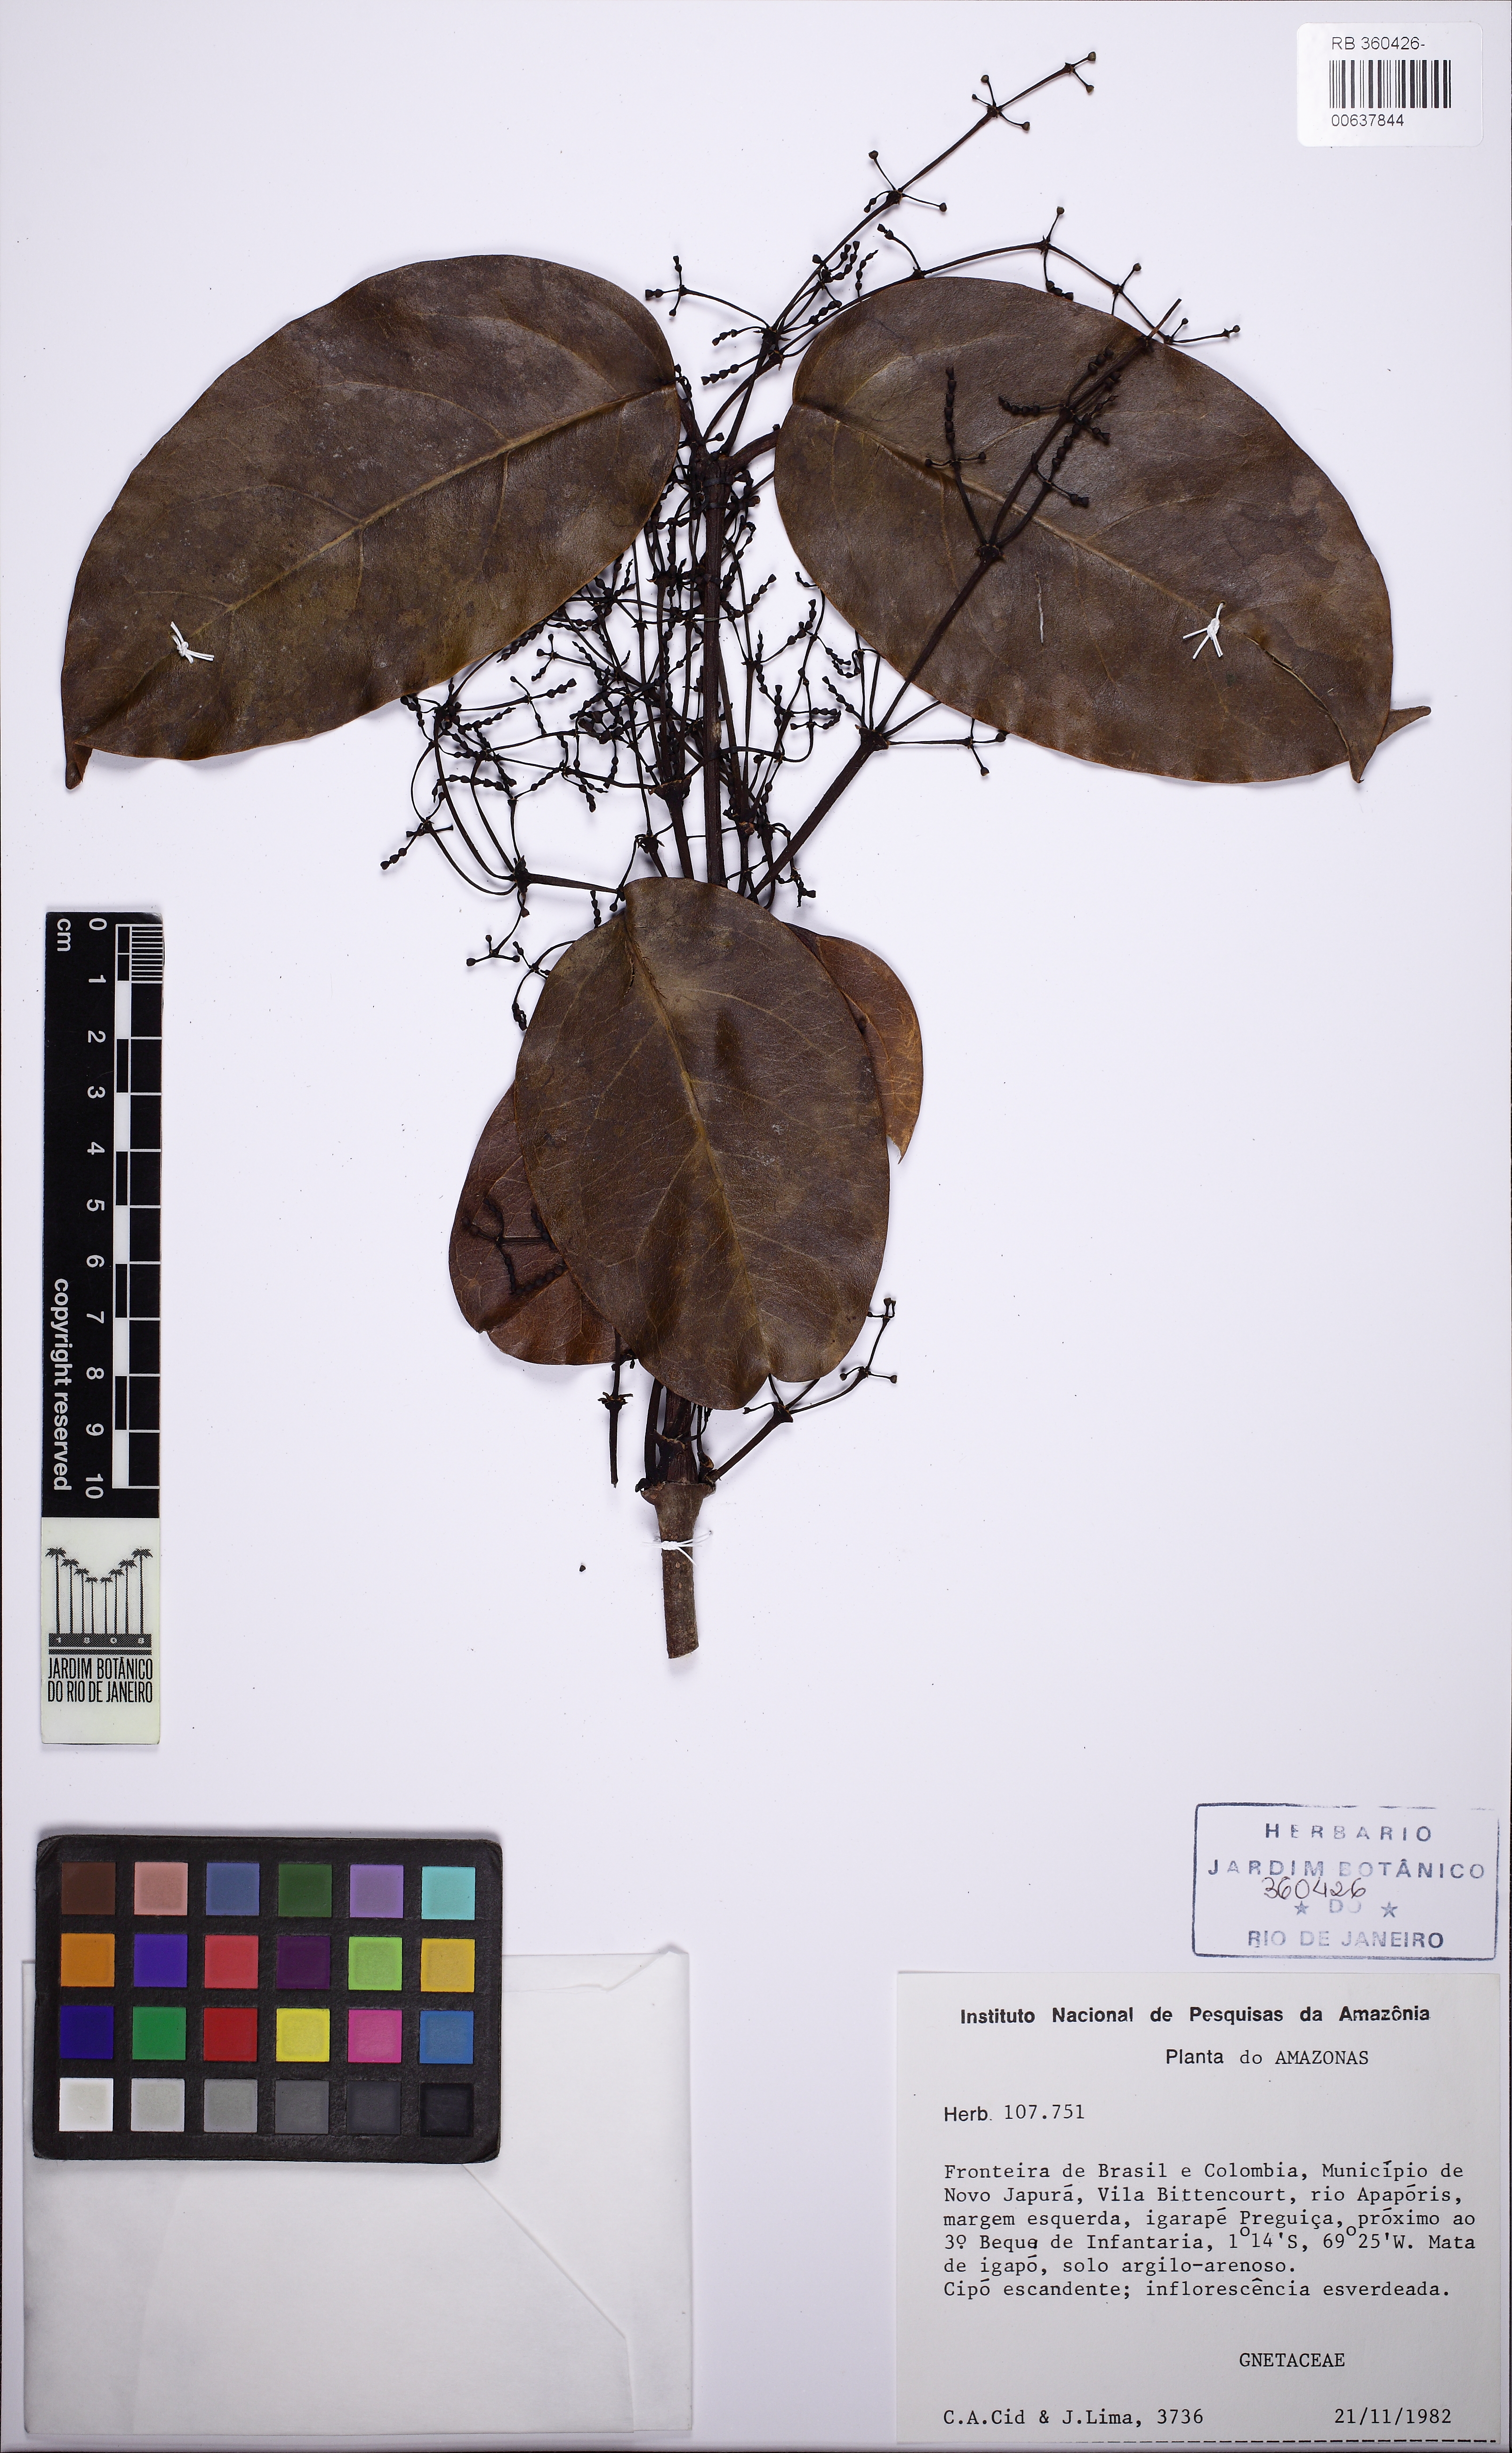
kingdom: Plantae
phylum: Tracheophyta
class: Gnetopsida
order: Gnetales
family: Gnetaceae
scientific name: Gnetaceae
